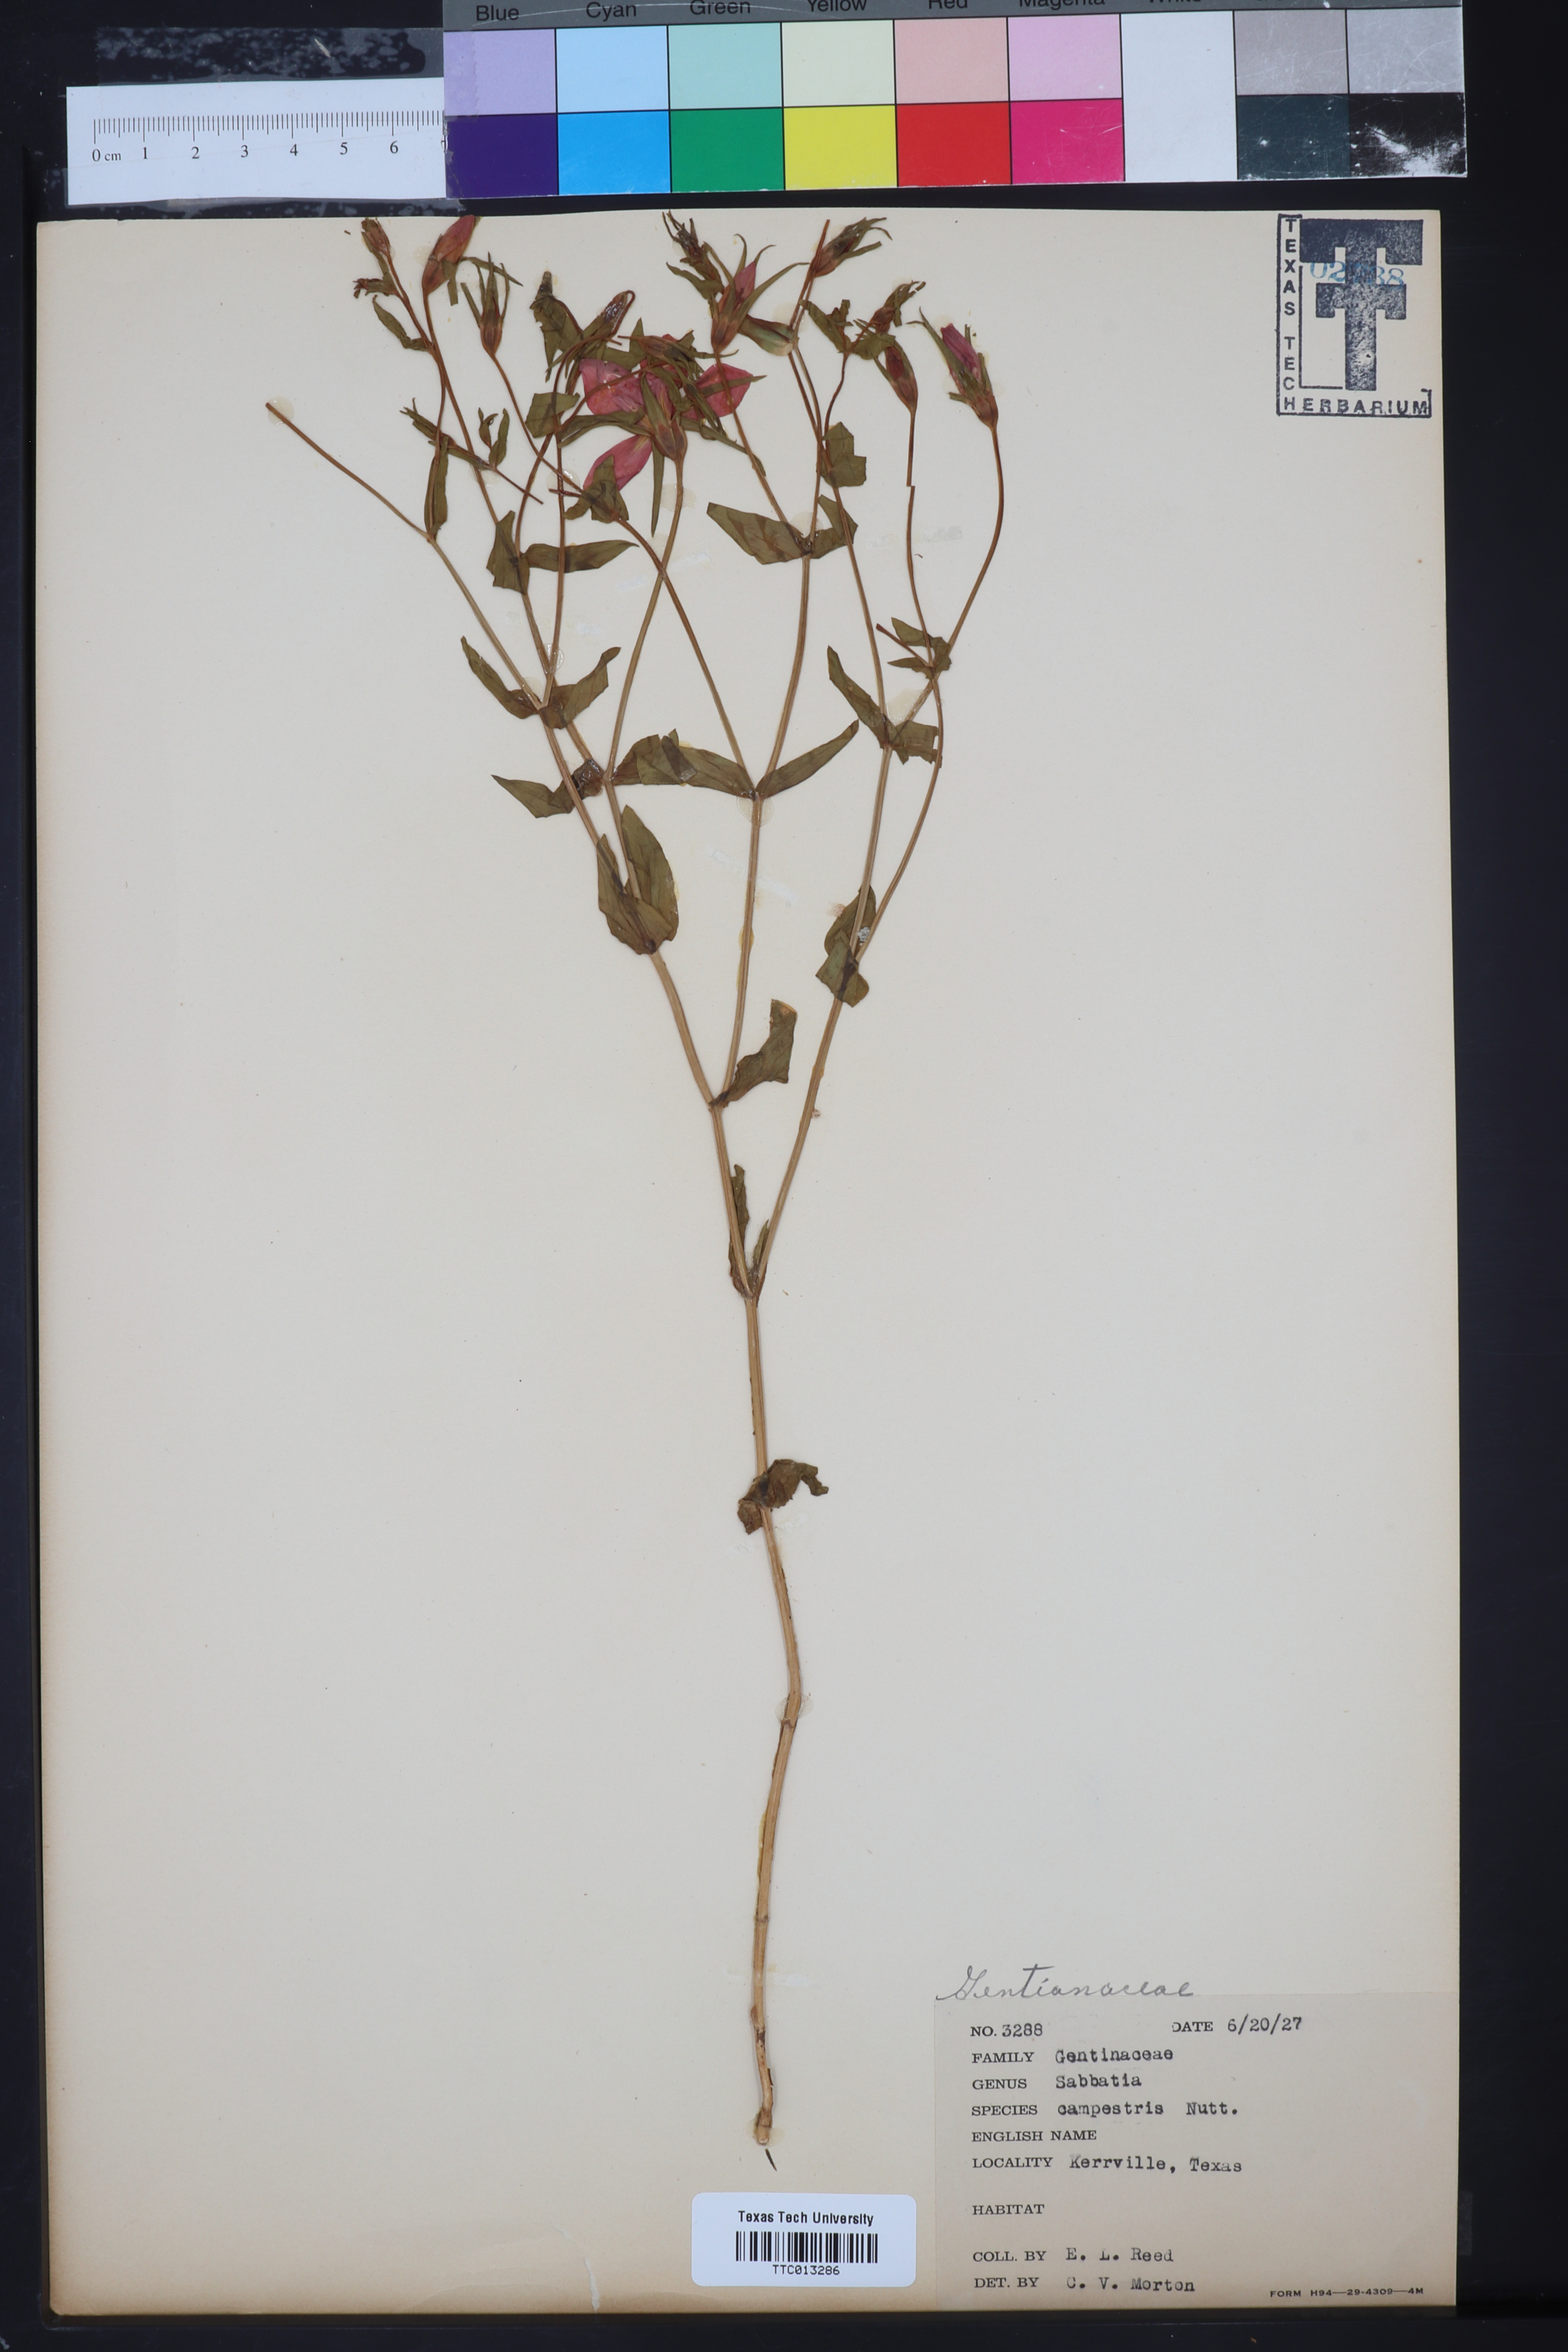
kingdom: Plantae
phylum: Tracheophyta
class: Magnoliopsida
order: Gentianales
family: Gentianaceae
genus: Sabatia
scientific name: Sabatia campestris
